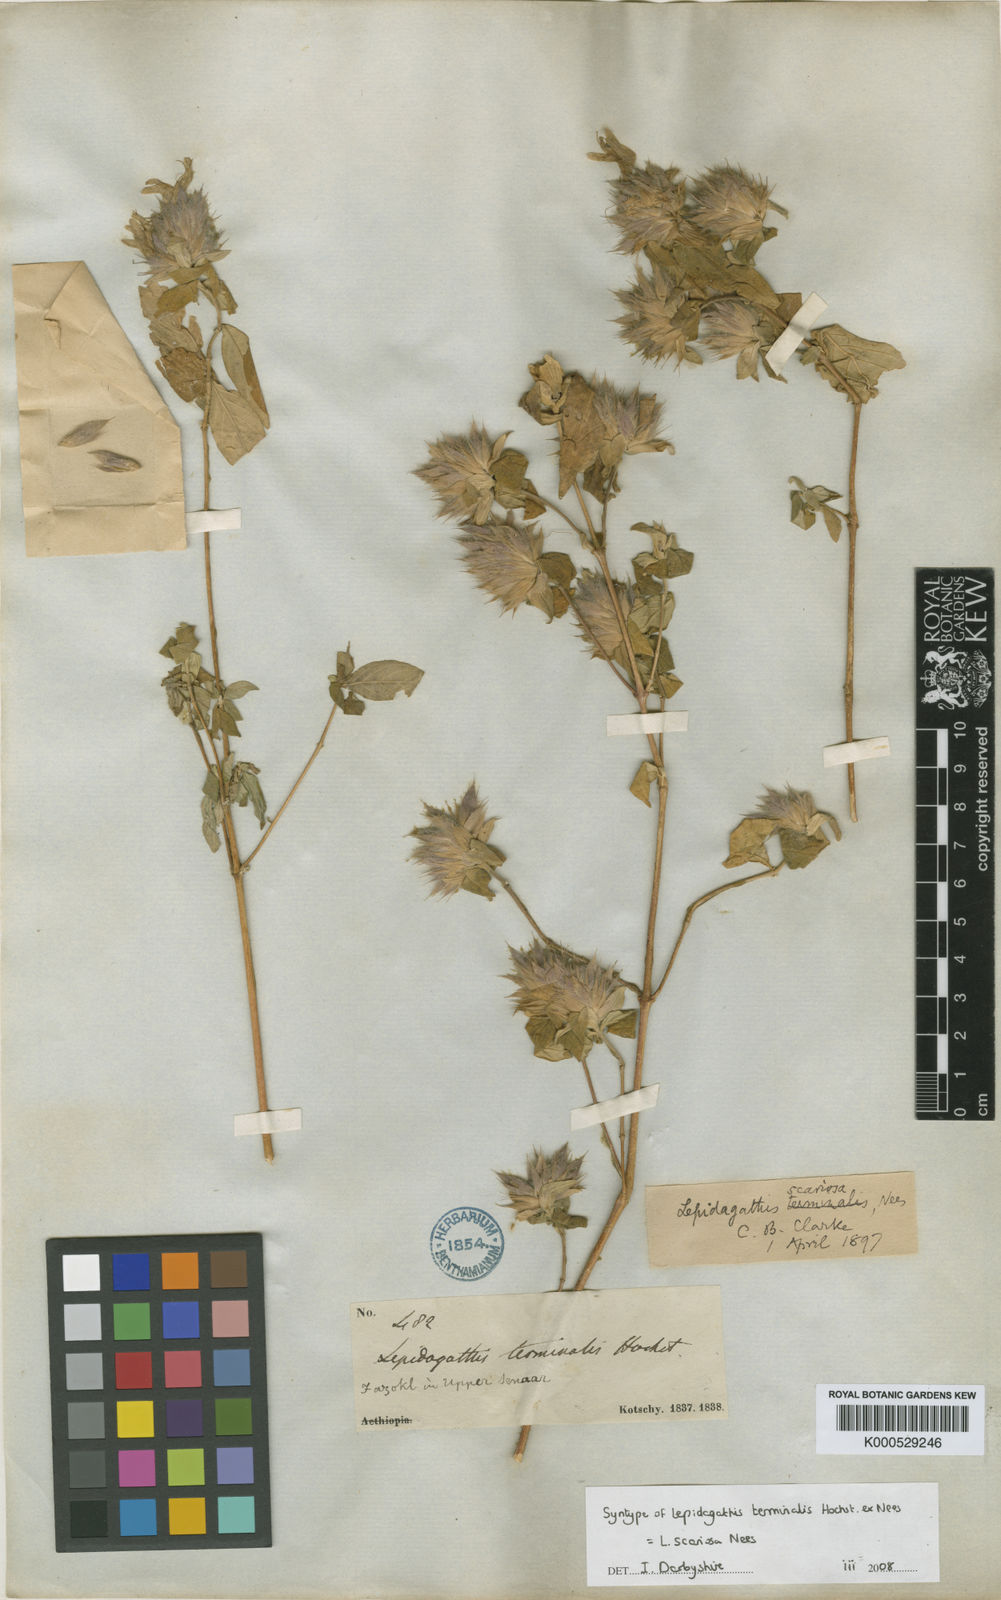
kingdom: Plantae
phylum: Tracheophyta
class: Magnoliopsida
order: Lamiales
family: Acanthaceae
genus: Lepidagathis
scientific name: Lepidagathis scariosa
